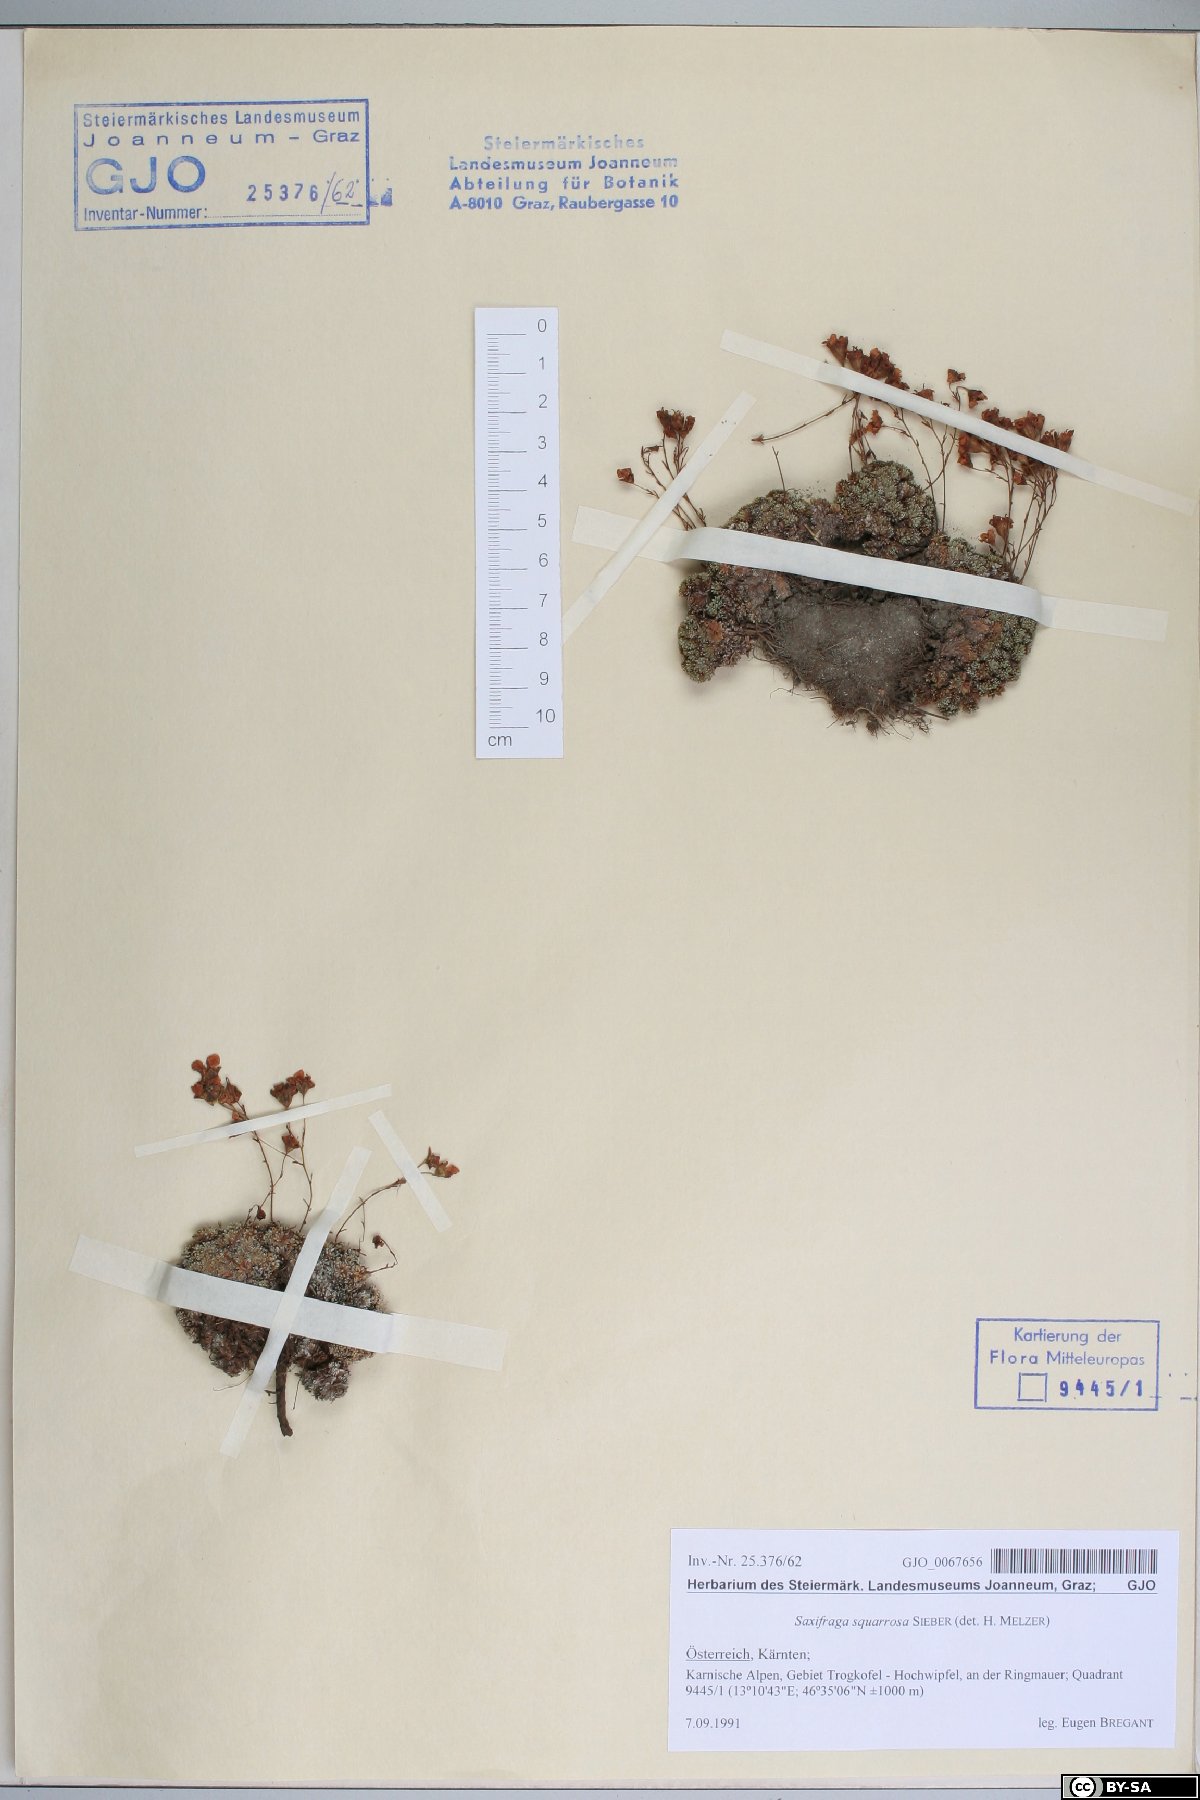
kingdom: Plantae
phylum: Tracheophyta
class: Magnoliopsida
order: Saxifragales
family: Saxifragaceae
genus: Saxifraga
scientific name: Saxifraga squarrosa
